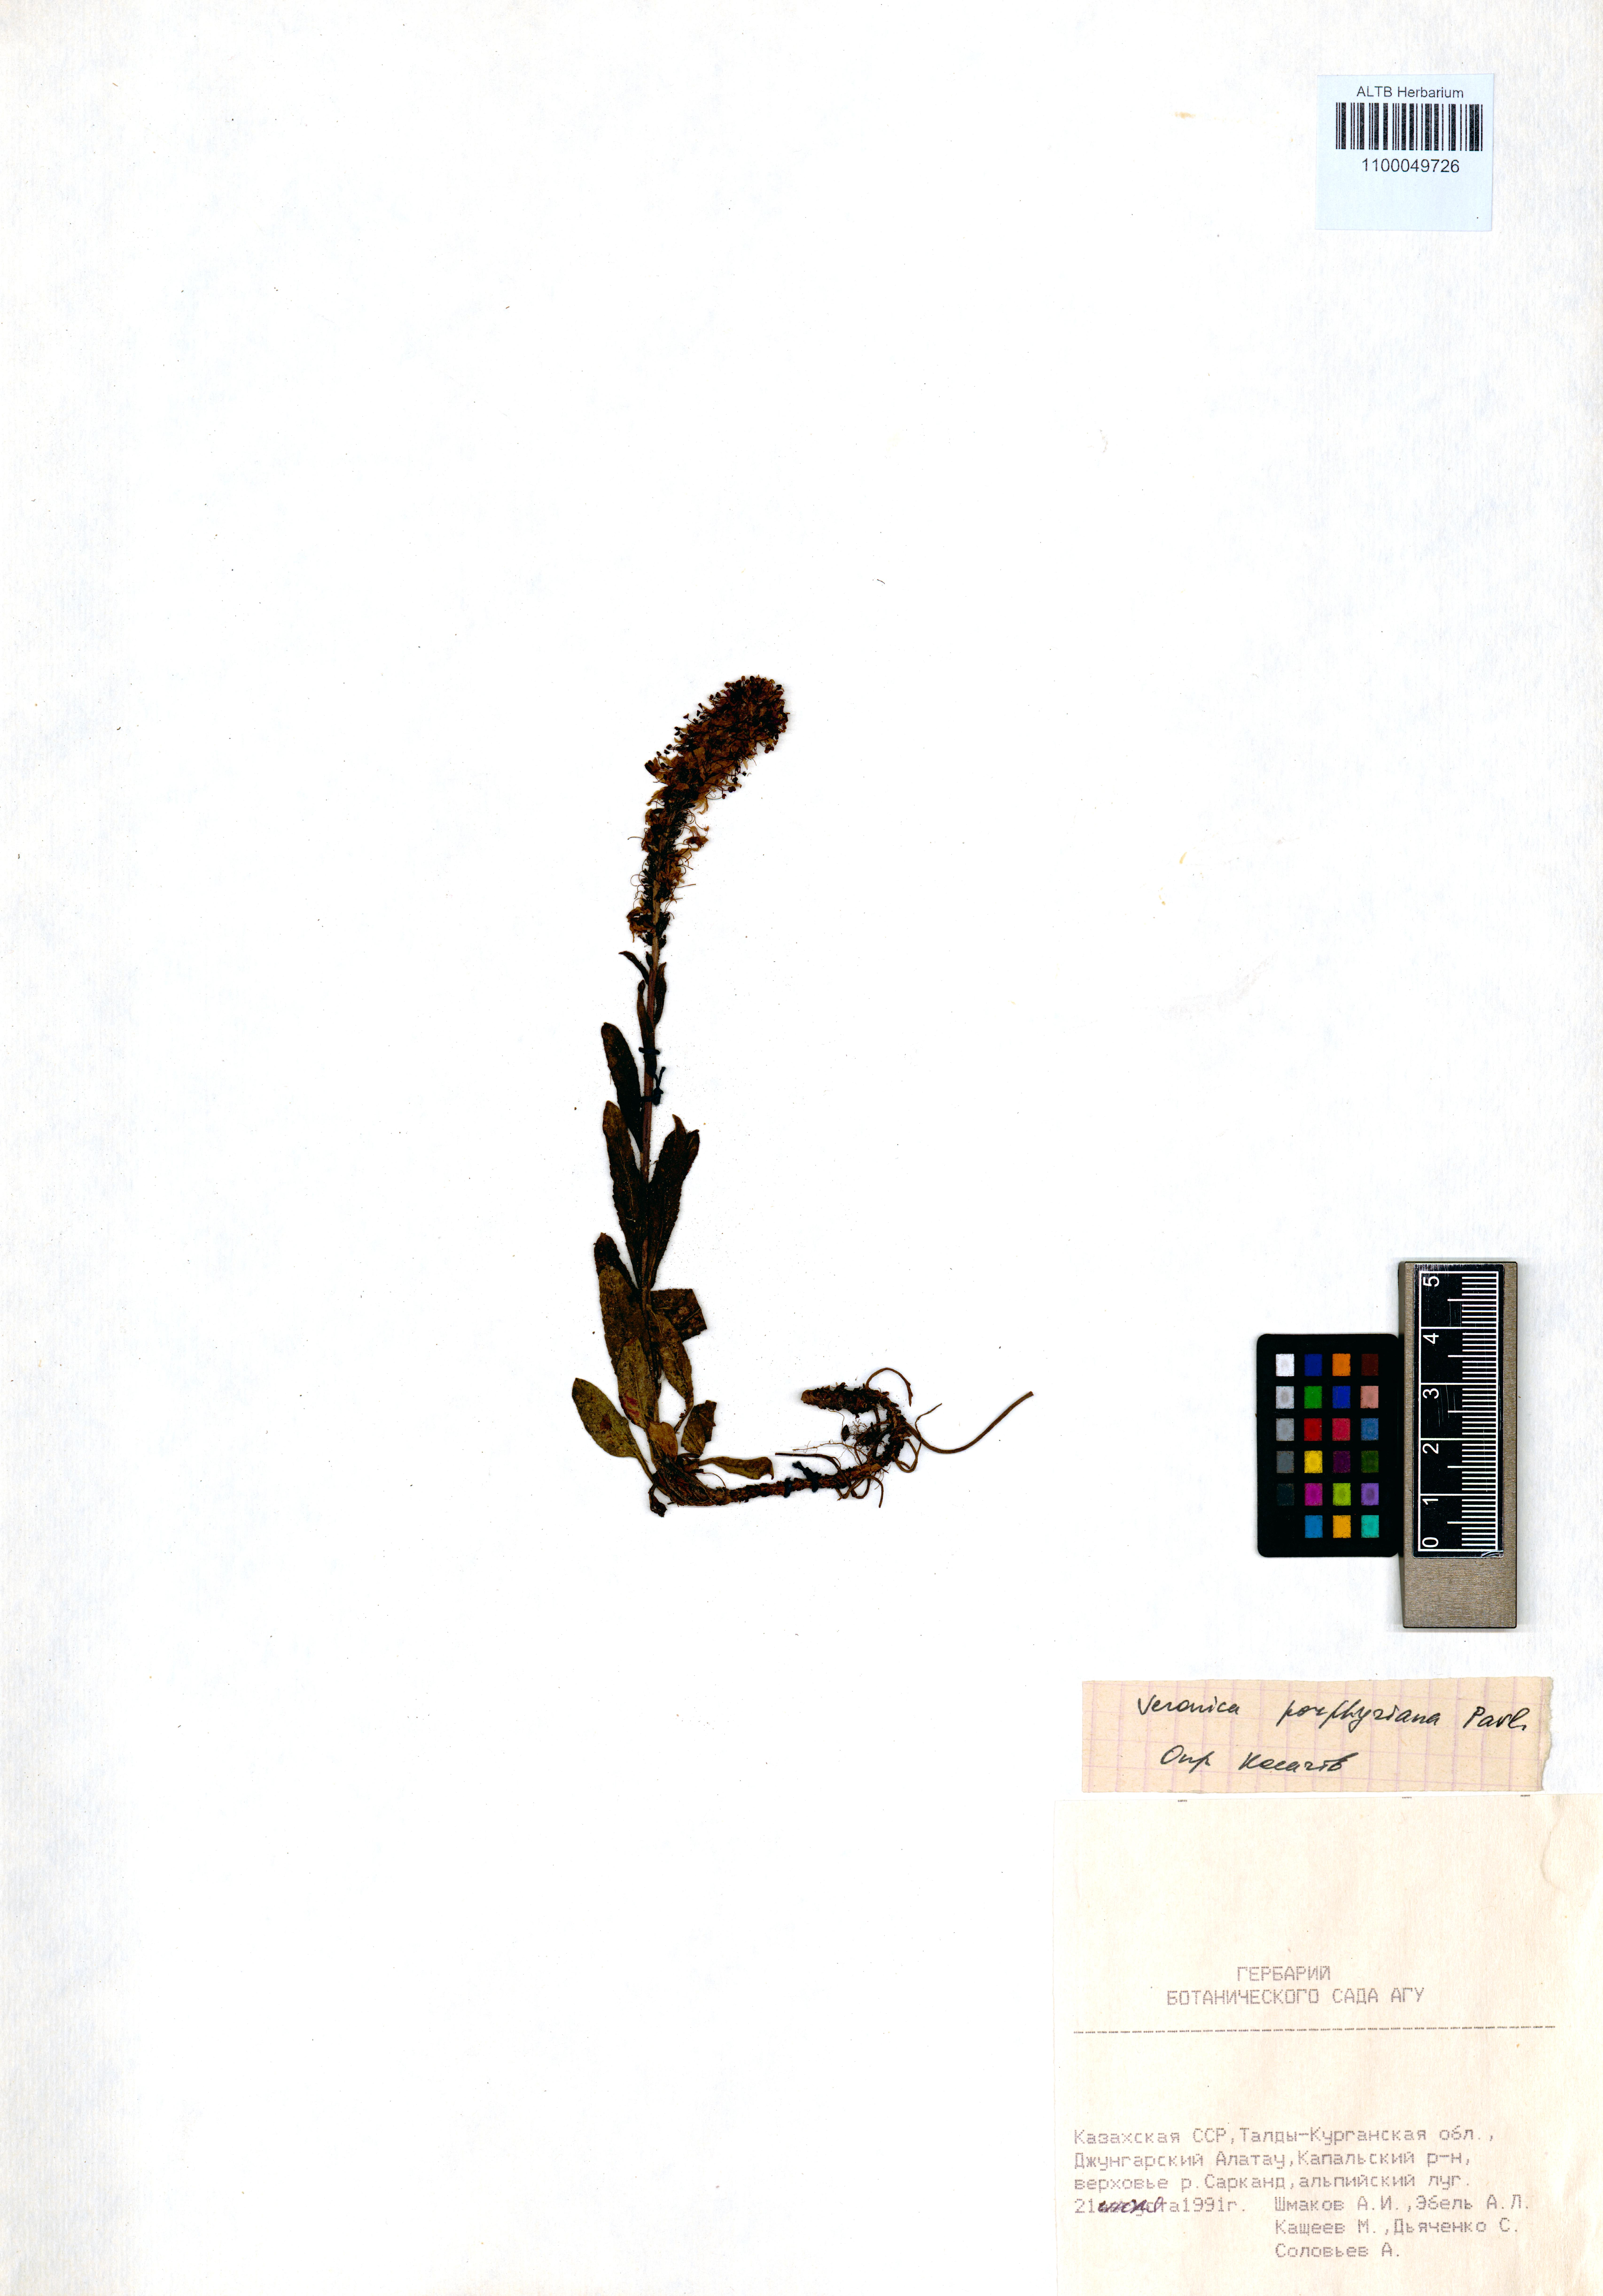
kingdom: Plantae
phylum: Tracheophyta
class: Magnoliopsida
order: Lamiales
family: Plantaginaceae
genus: Veronica
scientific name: Veronica porphyriana
